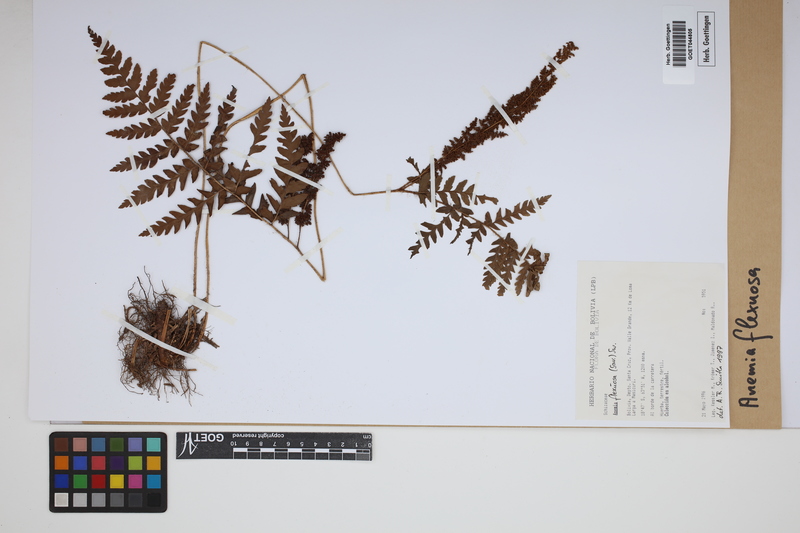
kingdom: Plantae
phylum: Tracheophyta
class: Polypodiopsida
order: Schizaeales
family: Anemiaceae
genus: Anemia
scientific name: Anemia flexuosa
